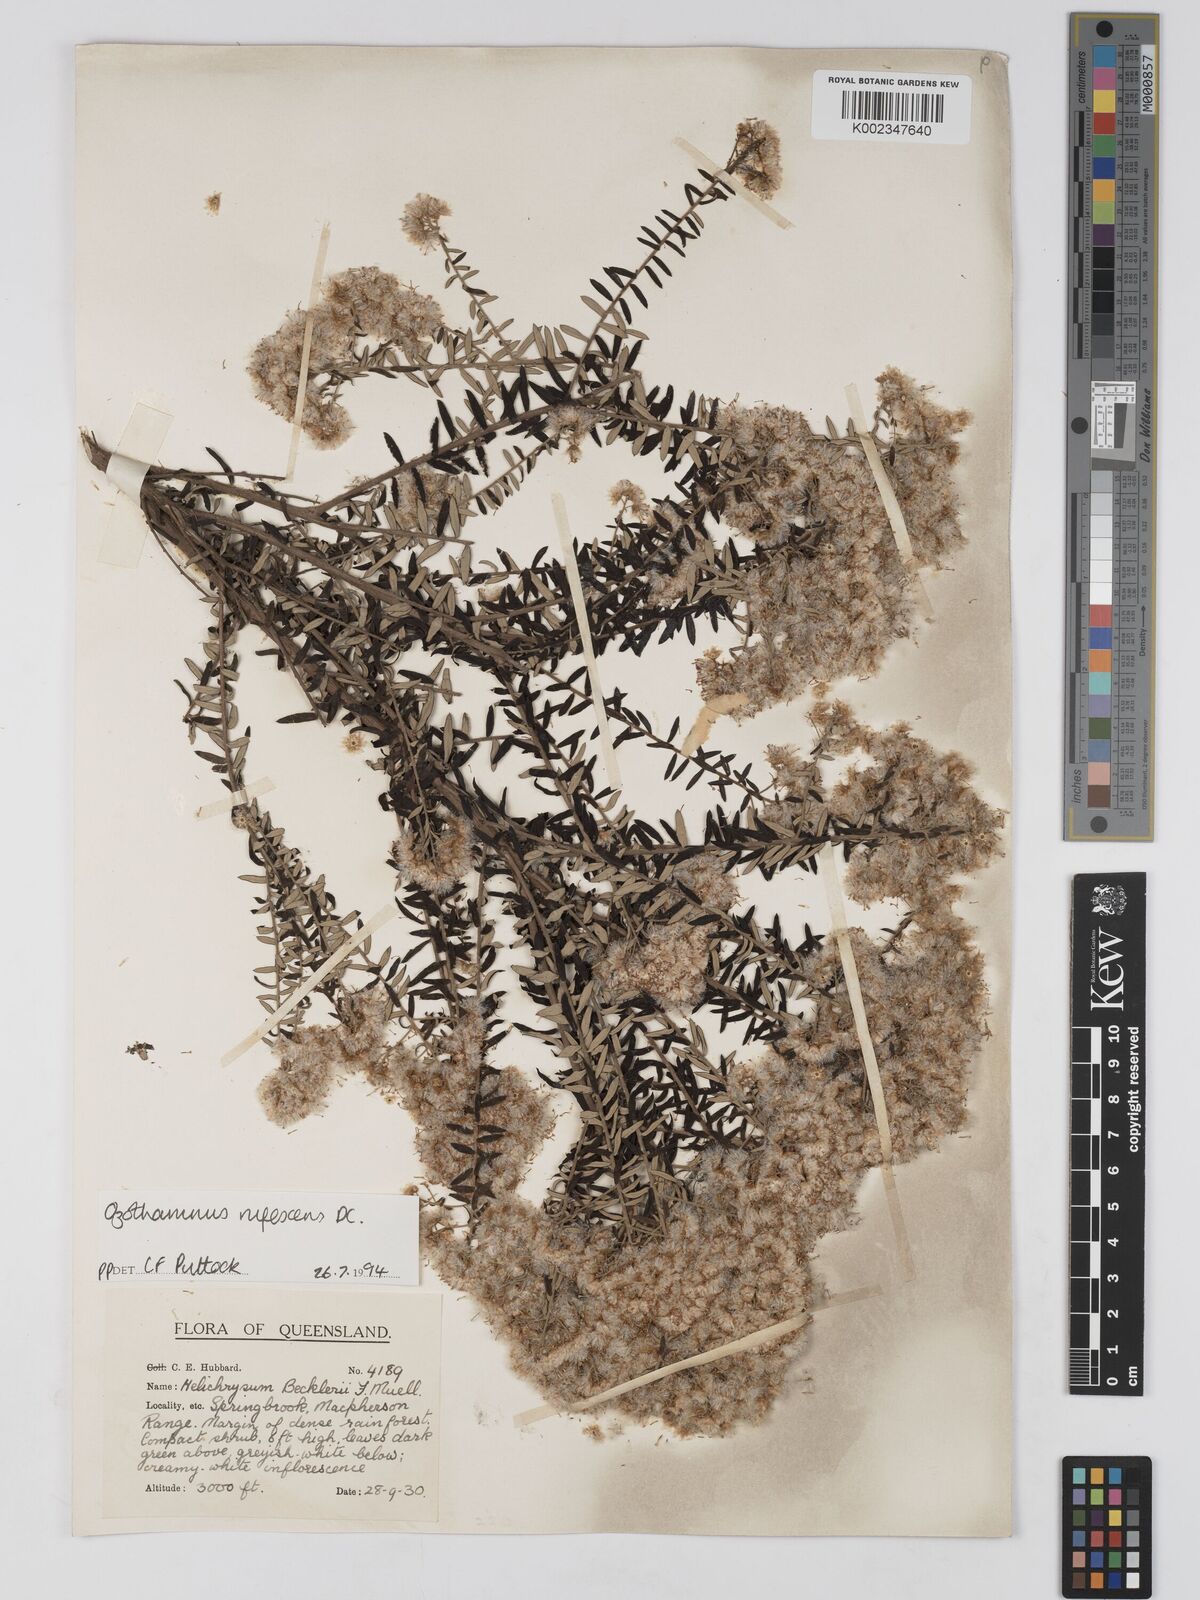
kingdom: Plantae
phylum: Tracheophyta
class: Magnoliopsida
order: Asterales
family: Asteraceae
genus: Ozothamnus
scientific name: Ozothamnus rufescens
